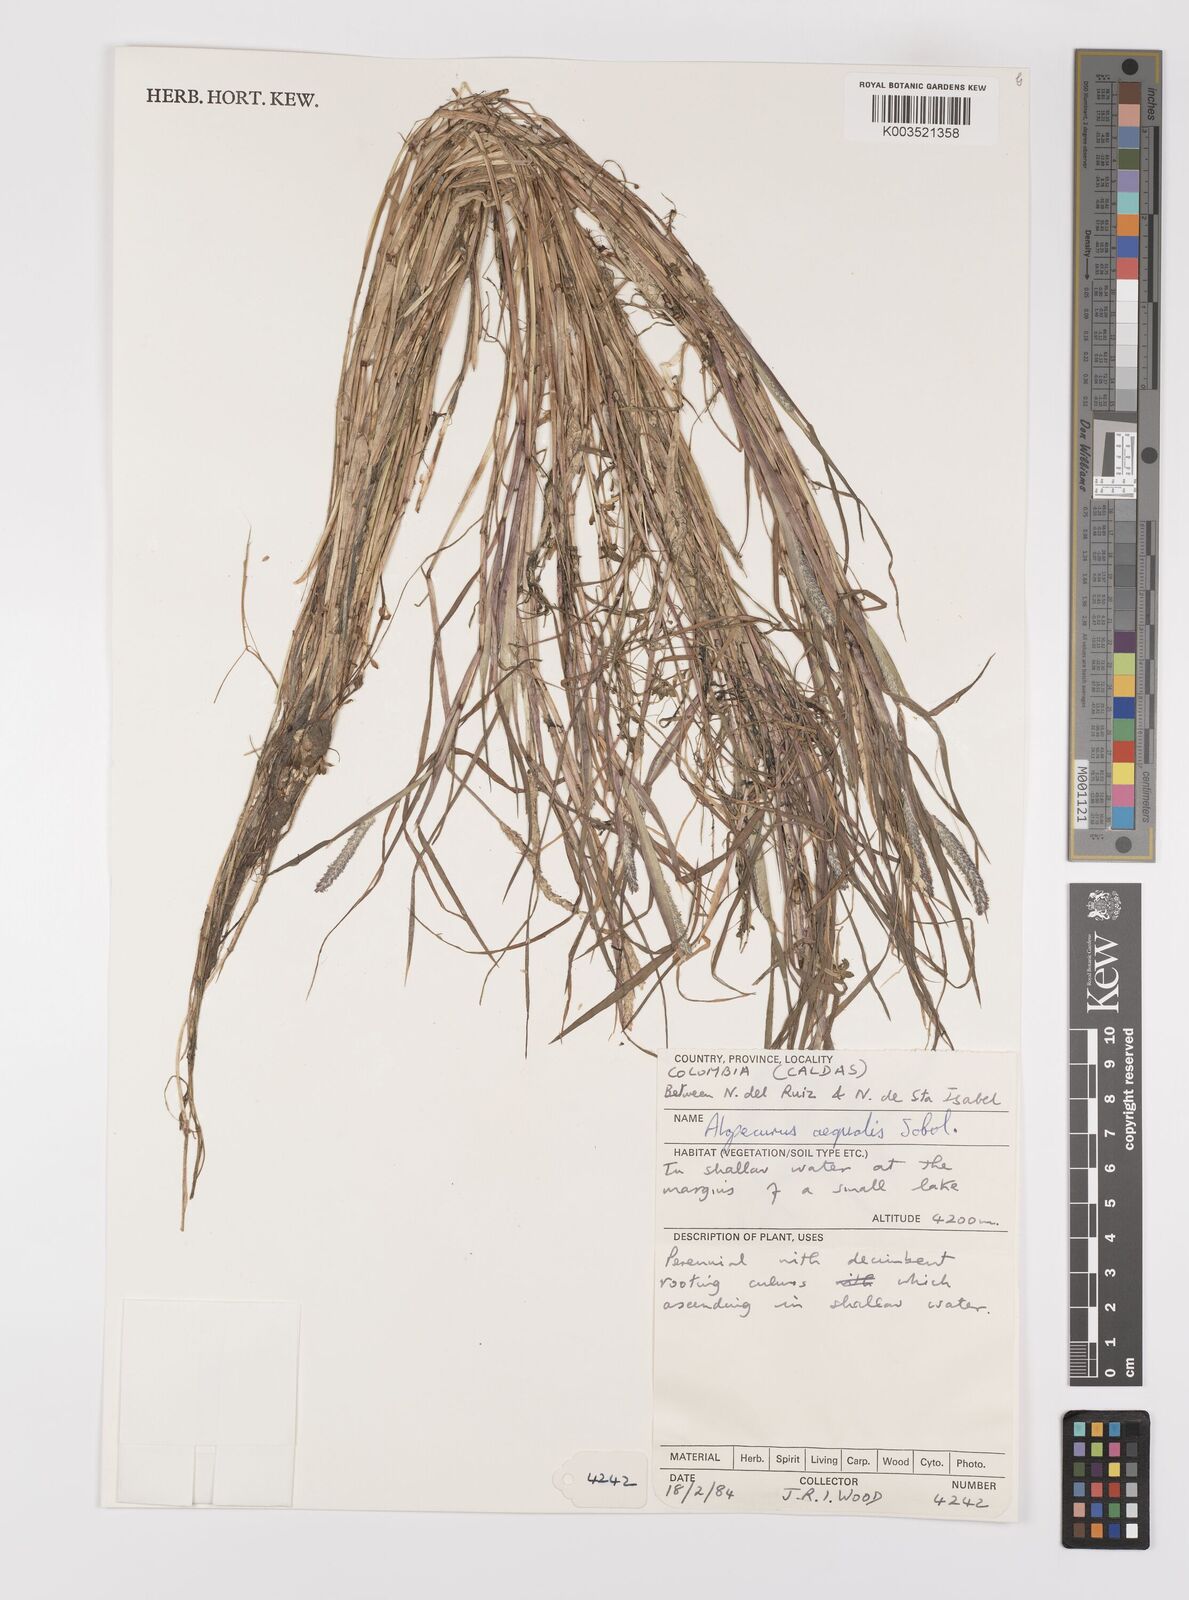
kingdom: Plantae
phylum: Tracheophyta
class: Liliopsida
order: Poales
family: Poaceae
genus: Alopecurus
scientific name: Alopecurus aequalis
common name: Orange foxtail
